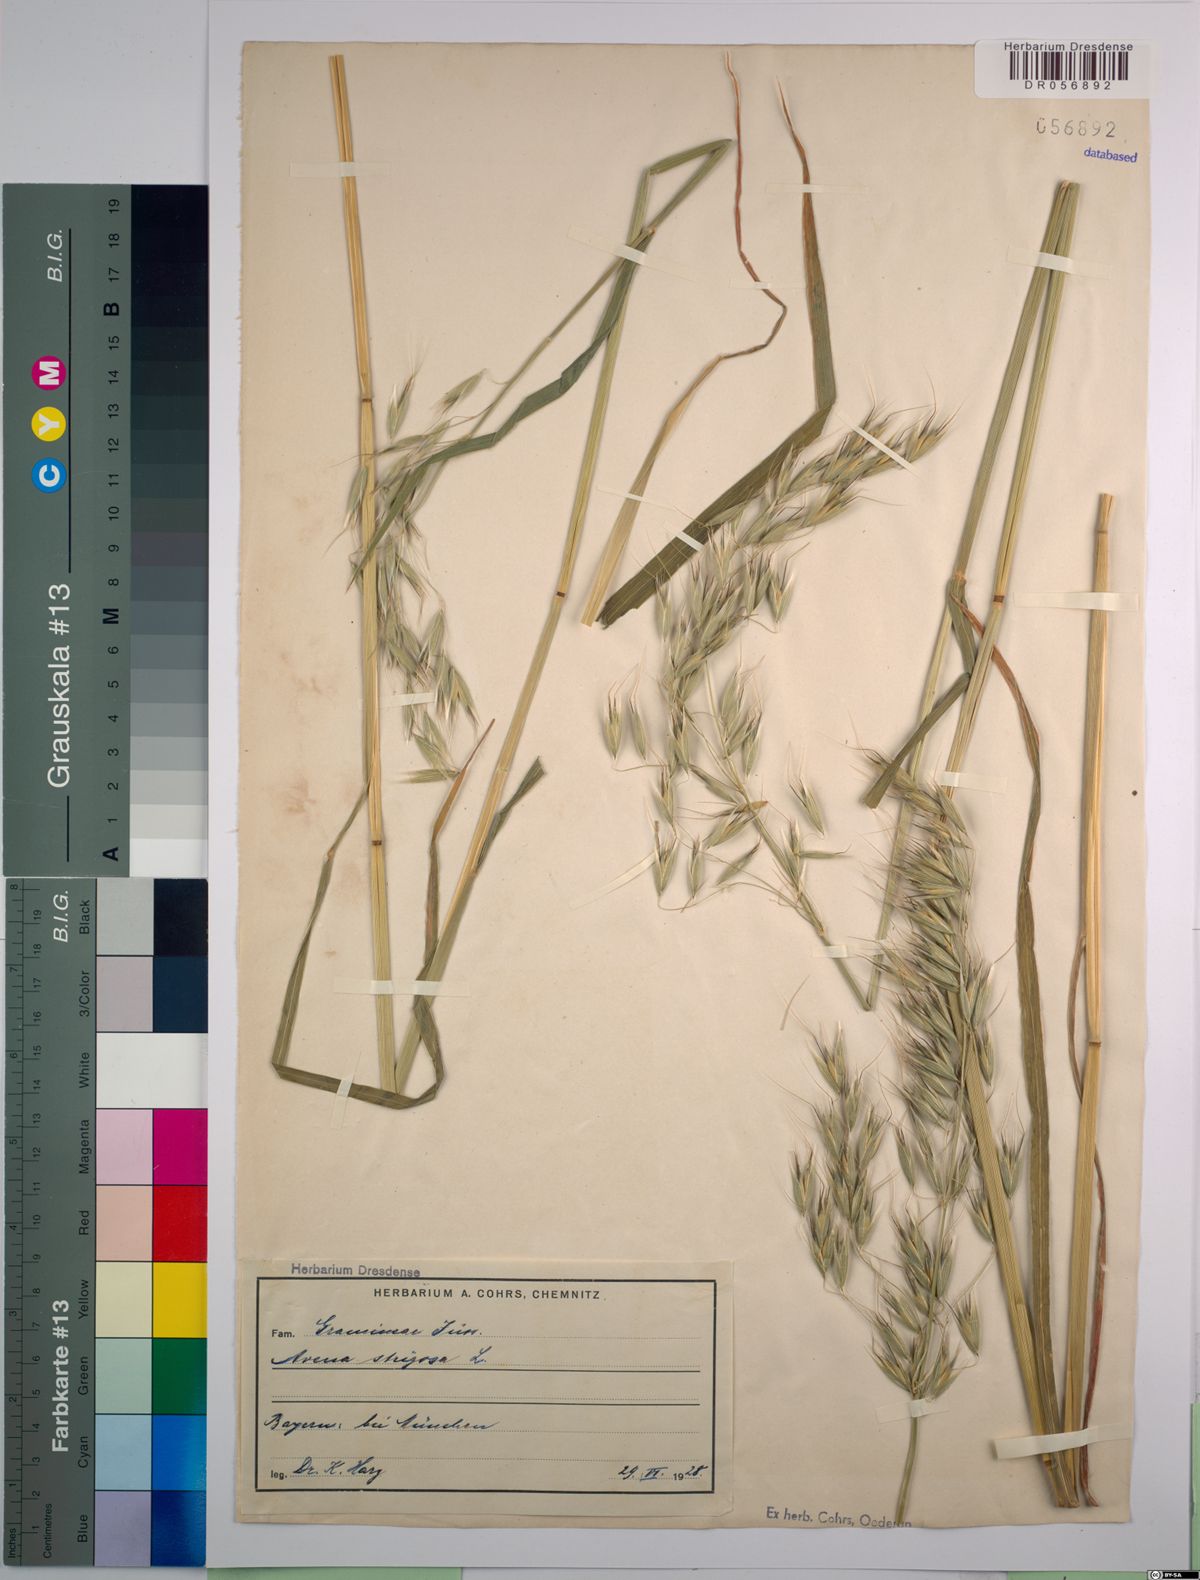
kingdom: Plantae
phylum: Tracheophyta
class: Liliopsida
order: Poales
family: Poaceae
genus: Avena
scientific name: Avena strigosa
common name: Bristle oat
